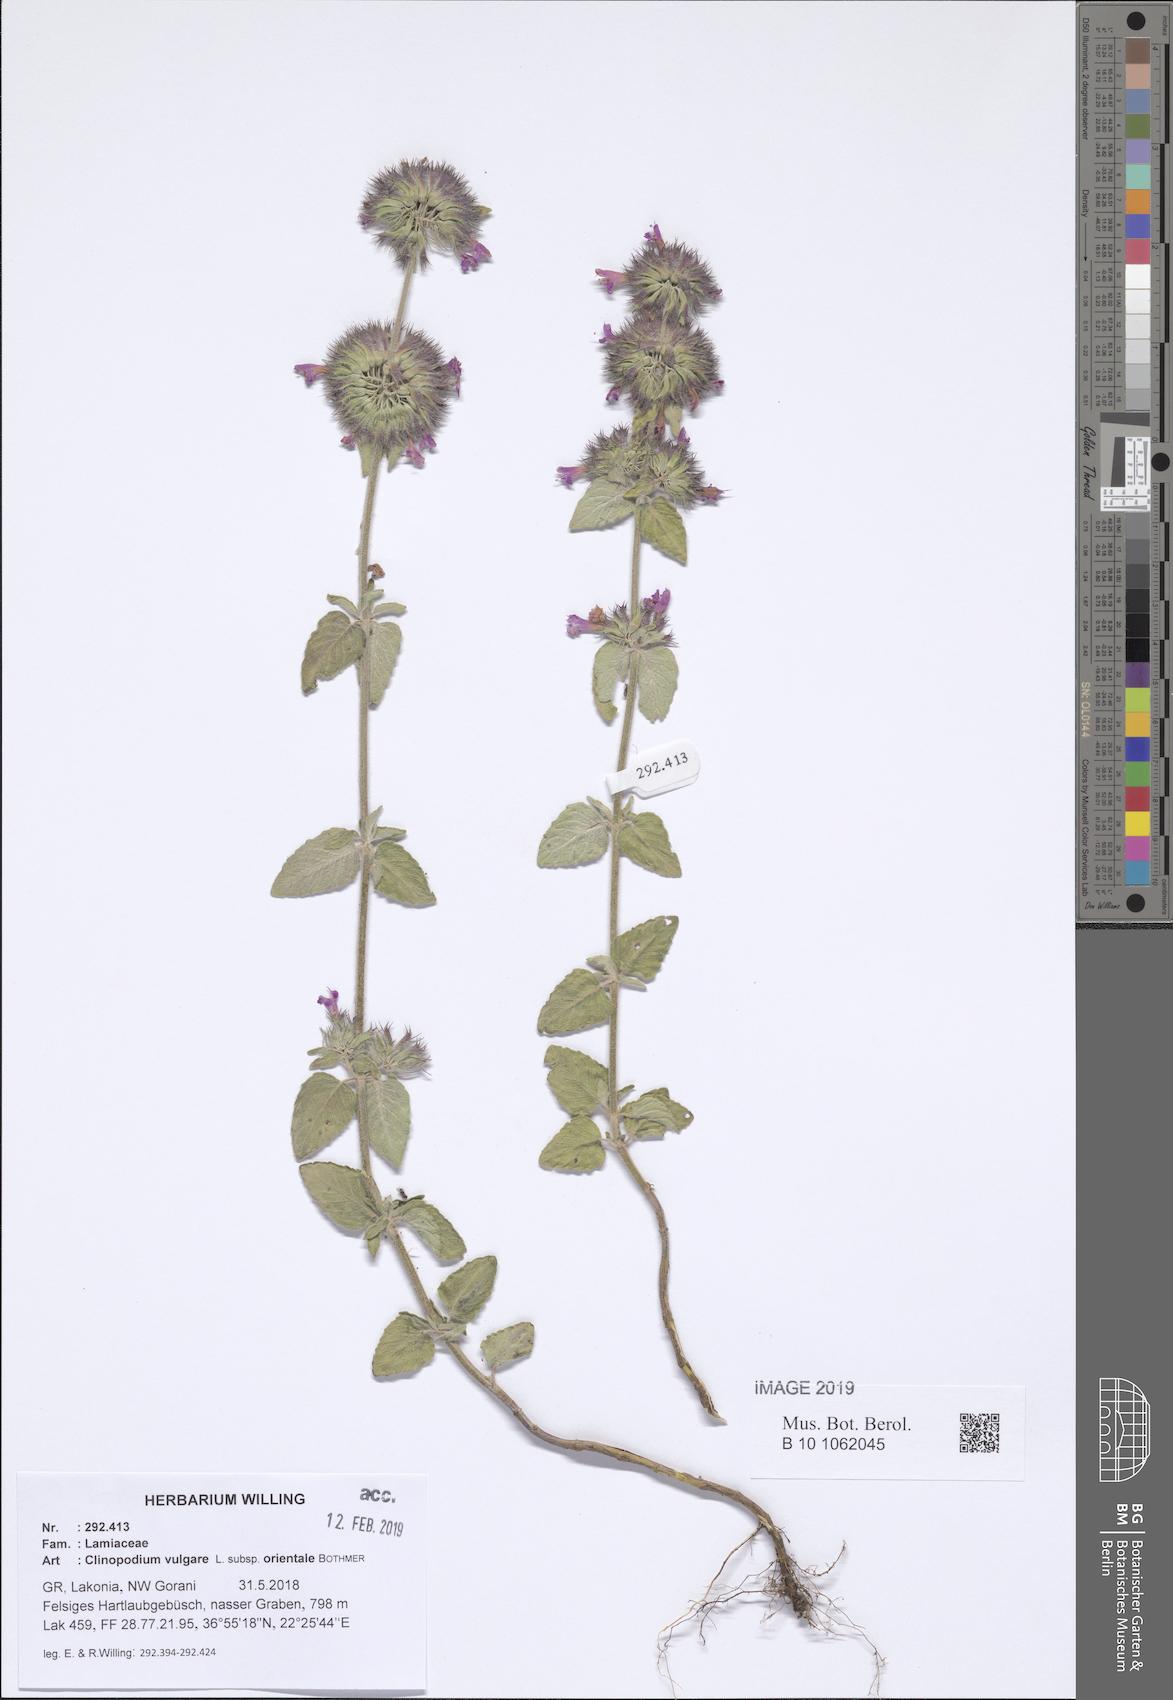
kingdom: Plantae
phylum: Tracheophyta
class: Magnoliopsida
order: Lamiales
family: Lamiaceae
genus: Clinopodium
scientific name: Clinopodium vulgare
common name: Wild basil
